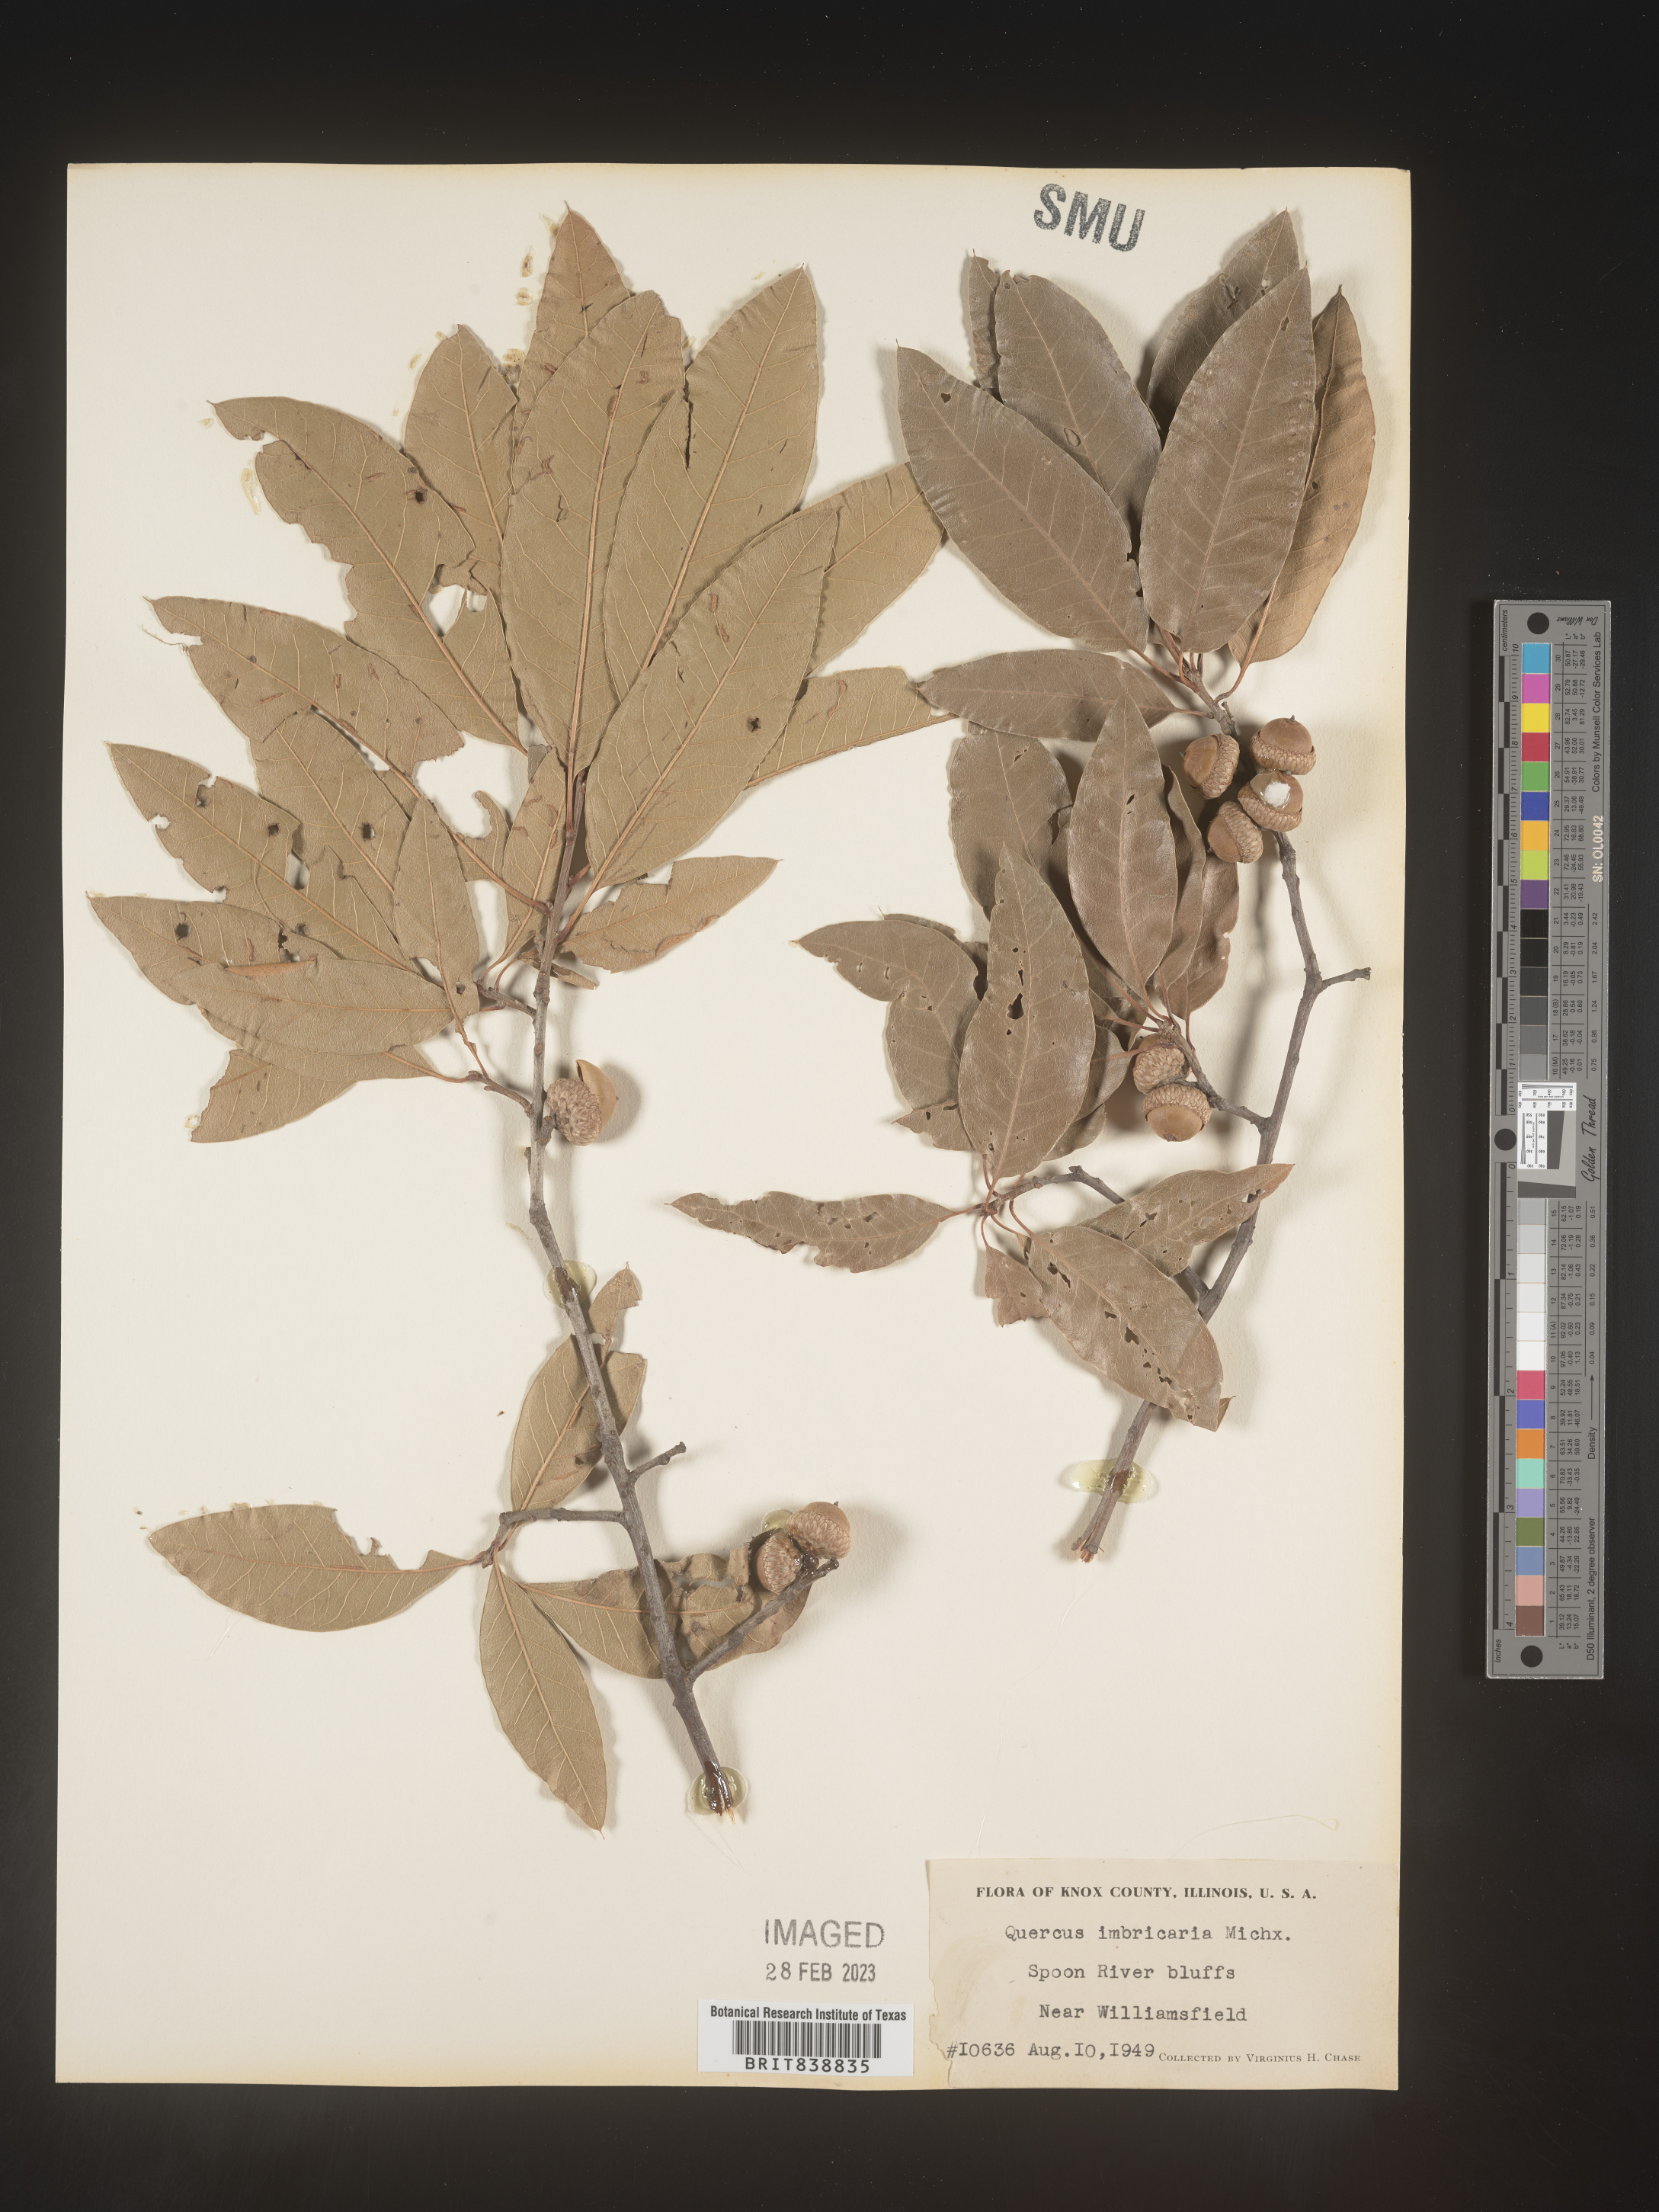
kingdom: Plantae
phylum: Tracheophyta
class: Magnoliopsida
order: Fagales
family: Fagaceae
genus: Quercus
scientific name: Quercus imbricaria
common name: Shingle oak
